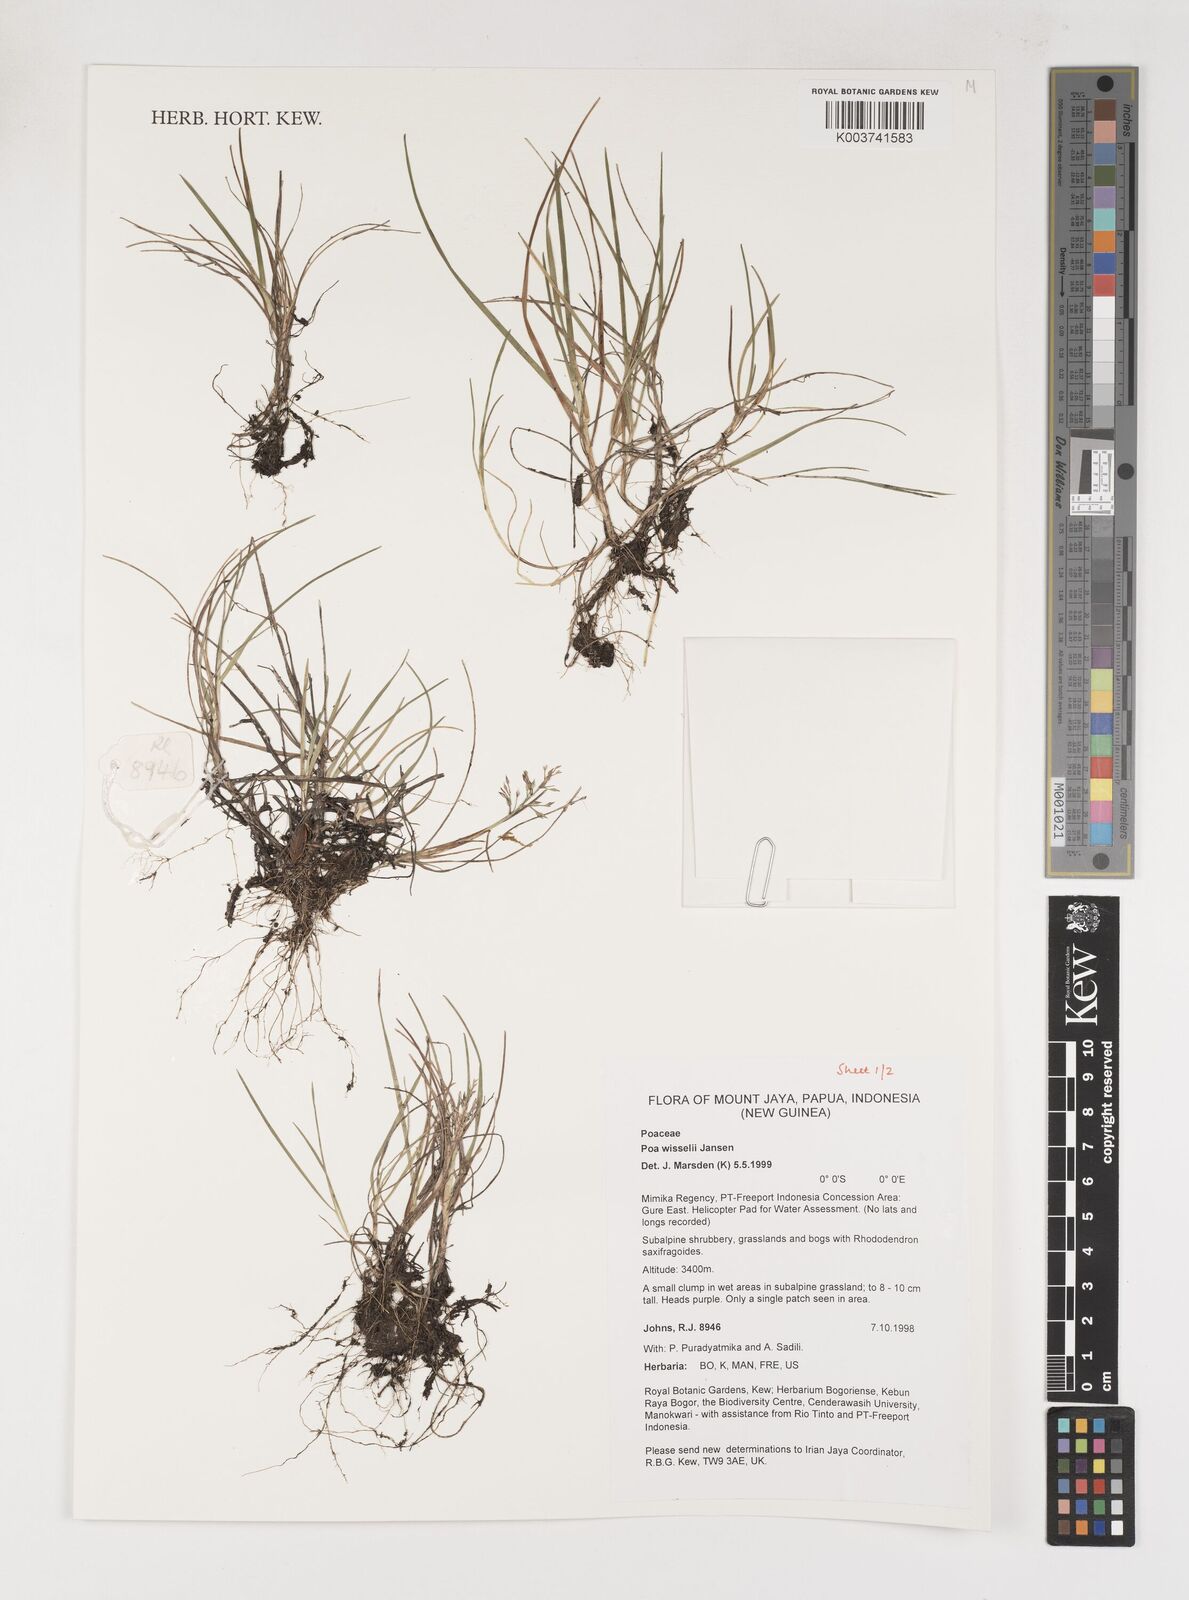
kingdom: Plantae
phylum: Tracheophyta
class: Liliopsida
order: Poales
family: Poaceae
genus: Poa
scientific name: Poa wisselii
